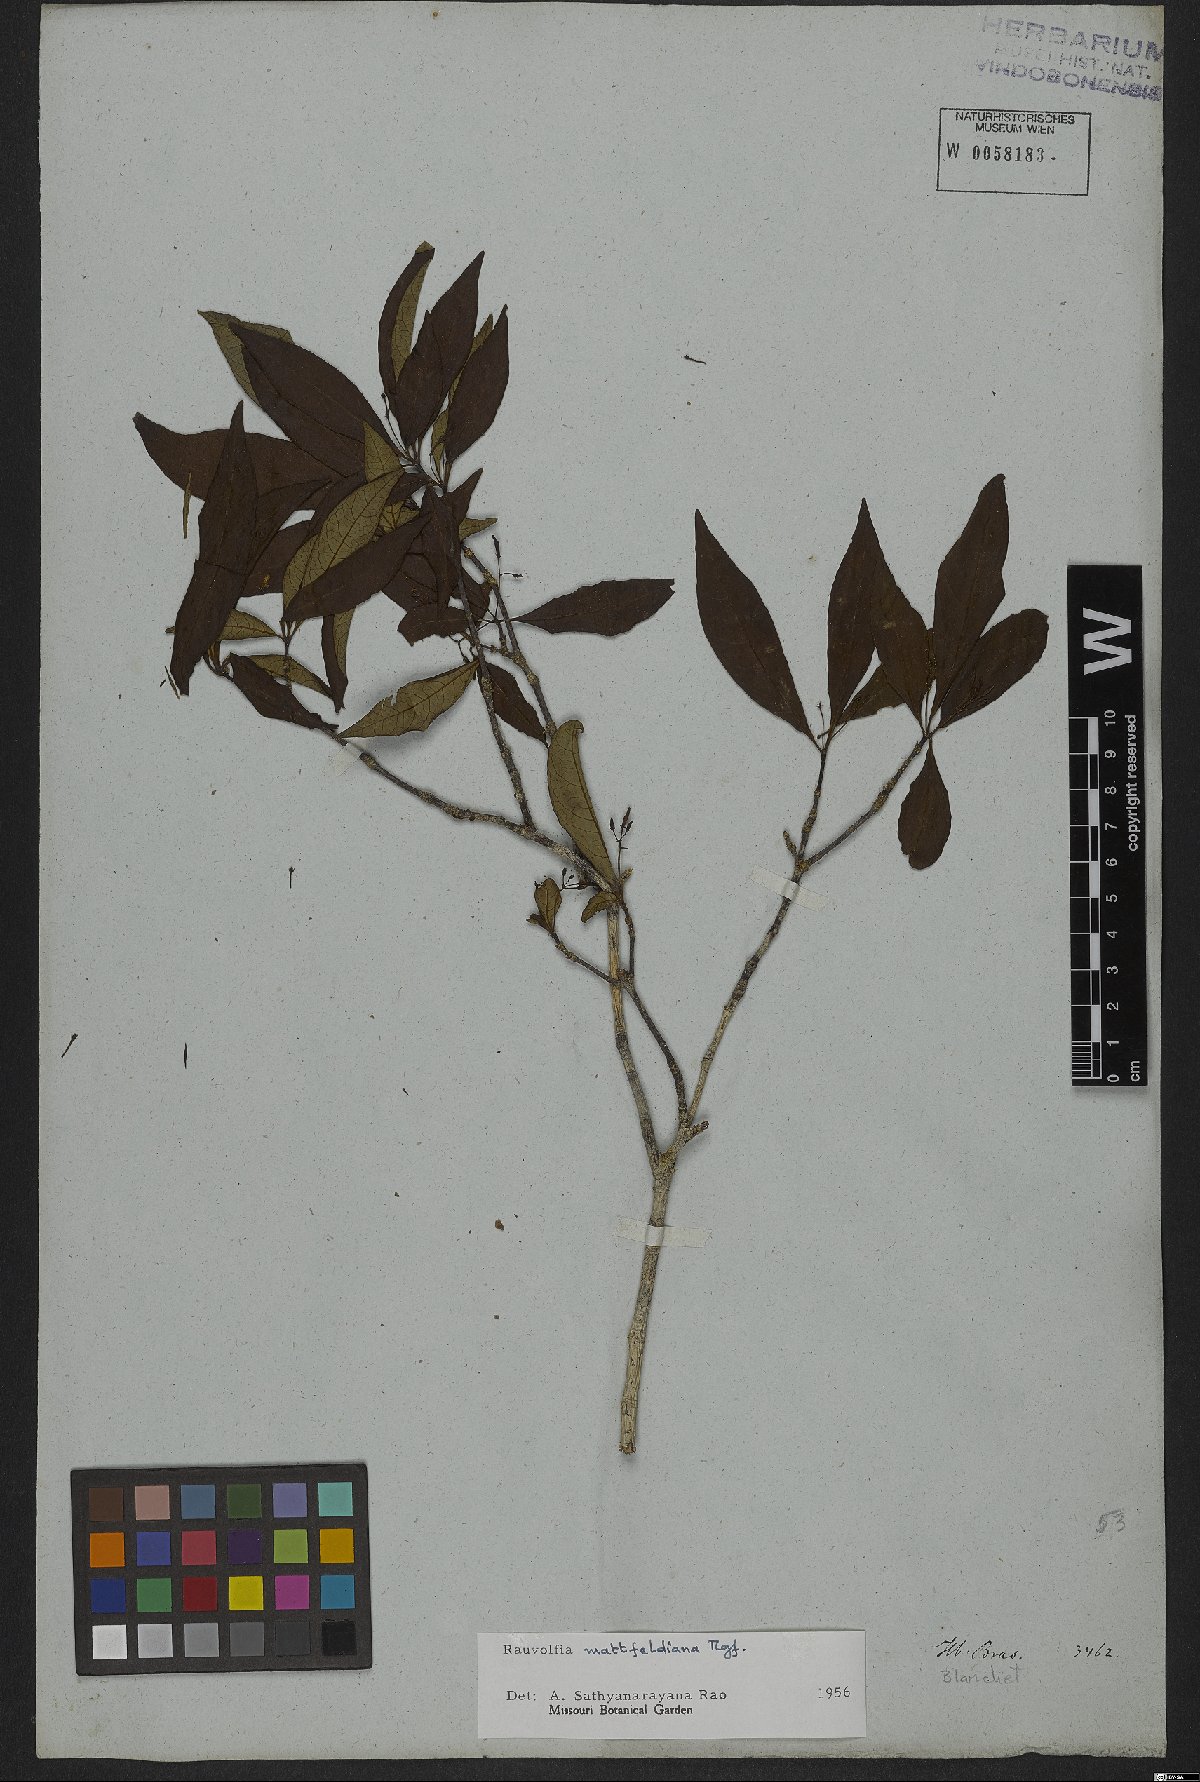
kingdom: Plantae
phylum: Tracheophyta
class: Magnoliopsida
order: Gentianales
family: Apocynaceae
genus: Rauvolfia
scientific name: Rauvolfia mattfeldiana
